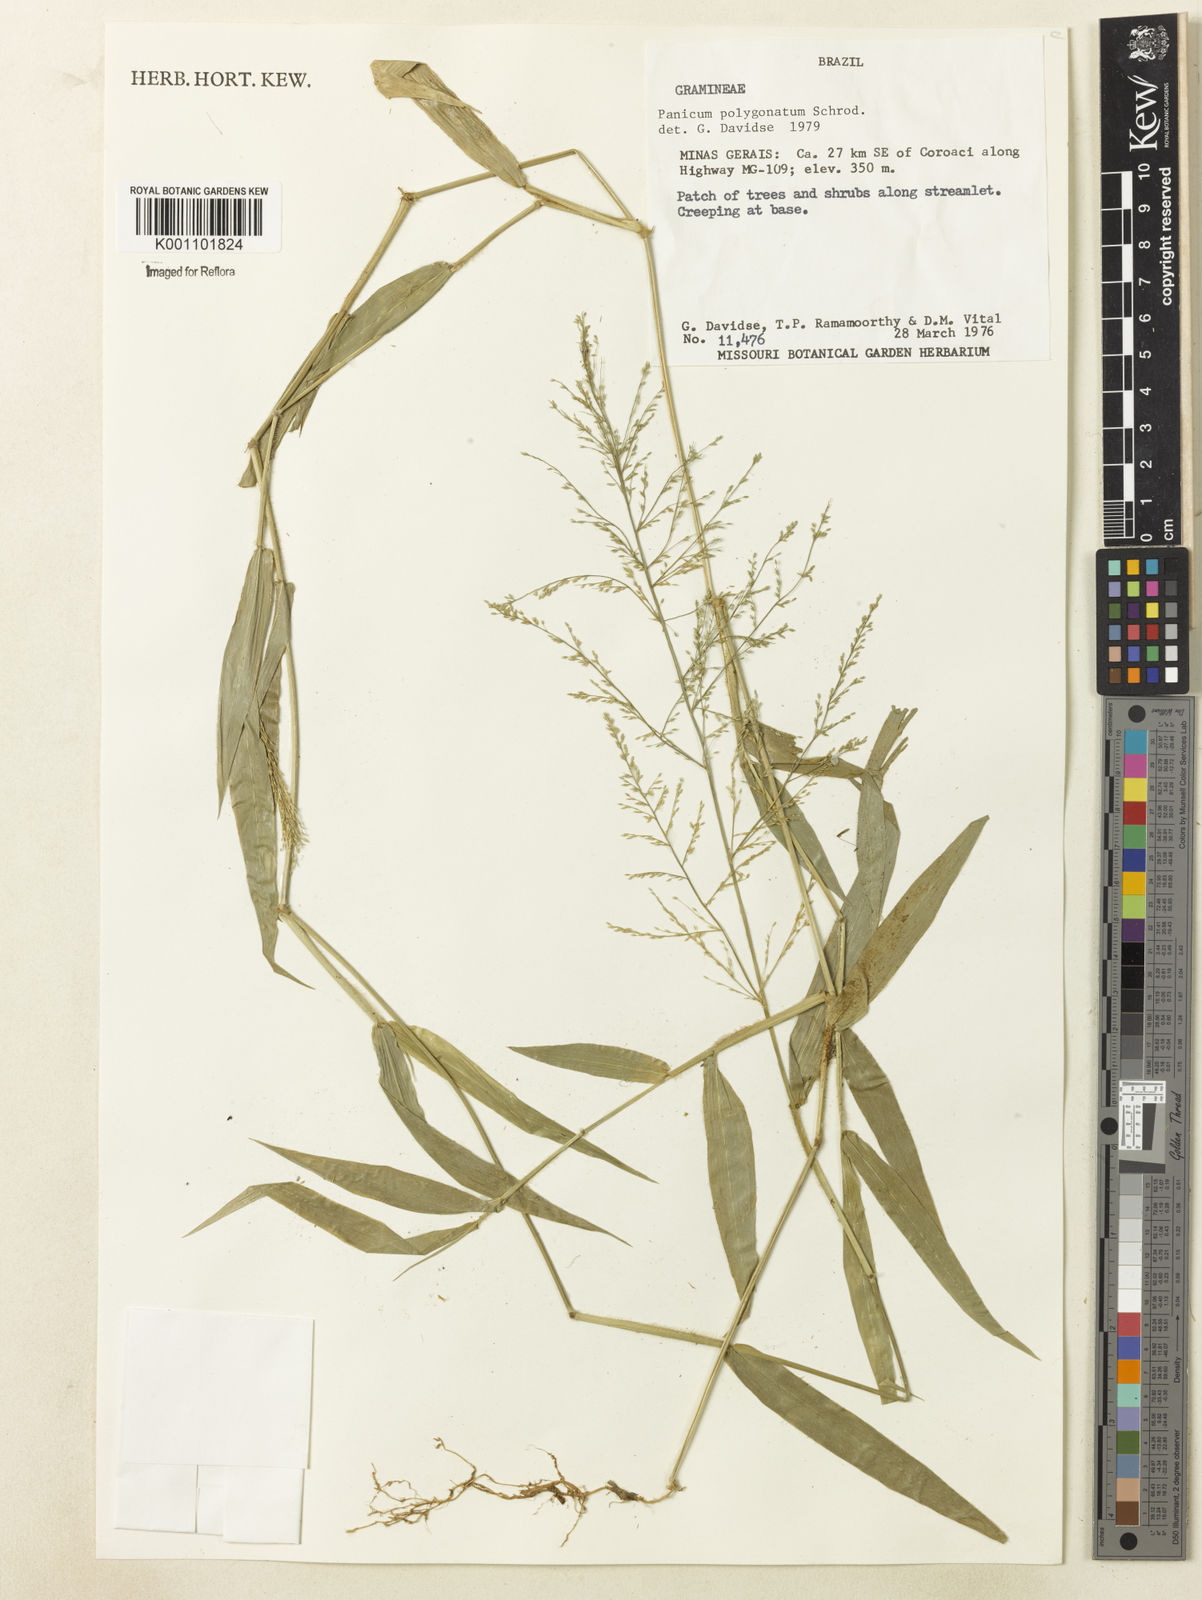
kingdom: Plantae
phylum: Tracheophyta
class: Liliopsida
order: Poales
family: Poaceae
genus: Rugoloa
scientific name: Rugoloa polygonata
